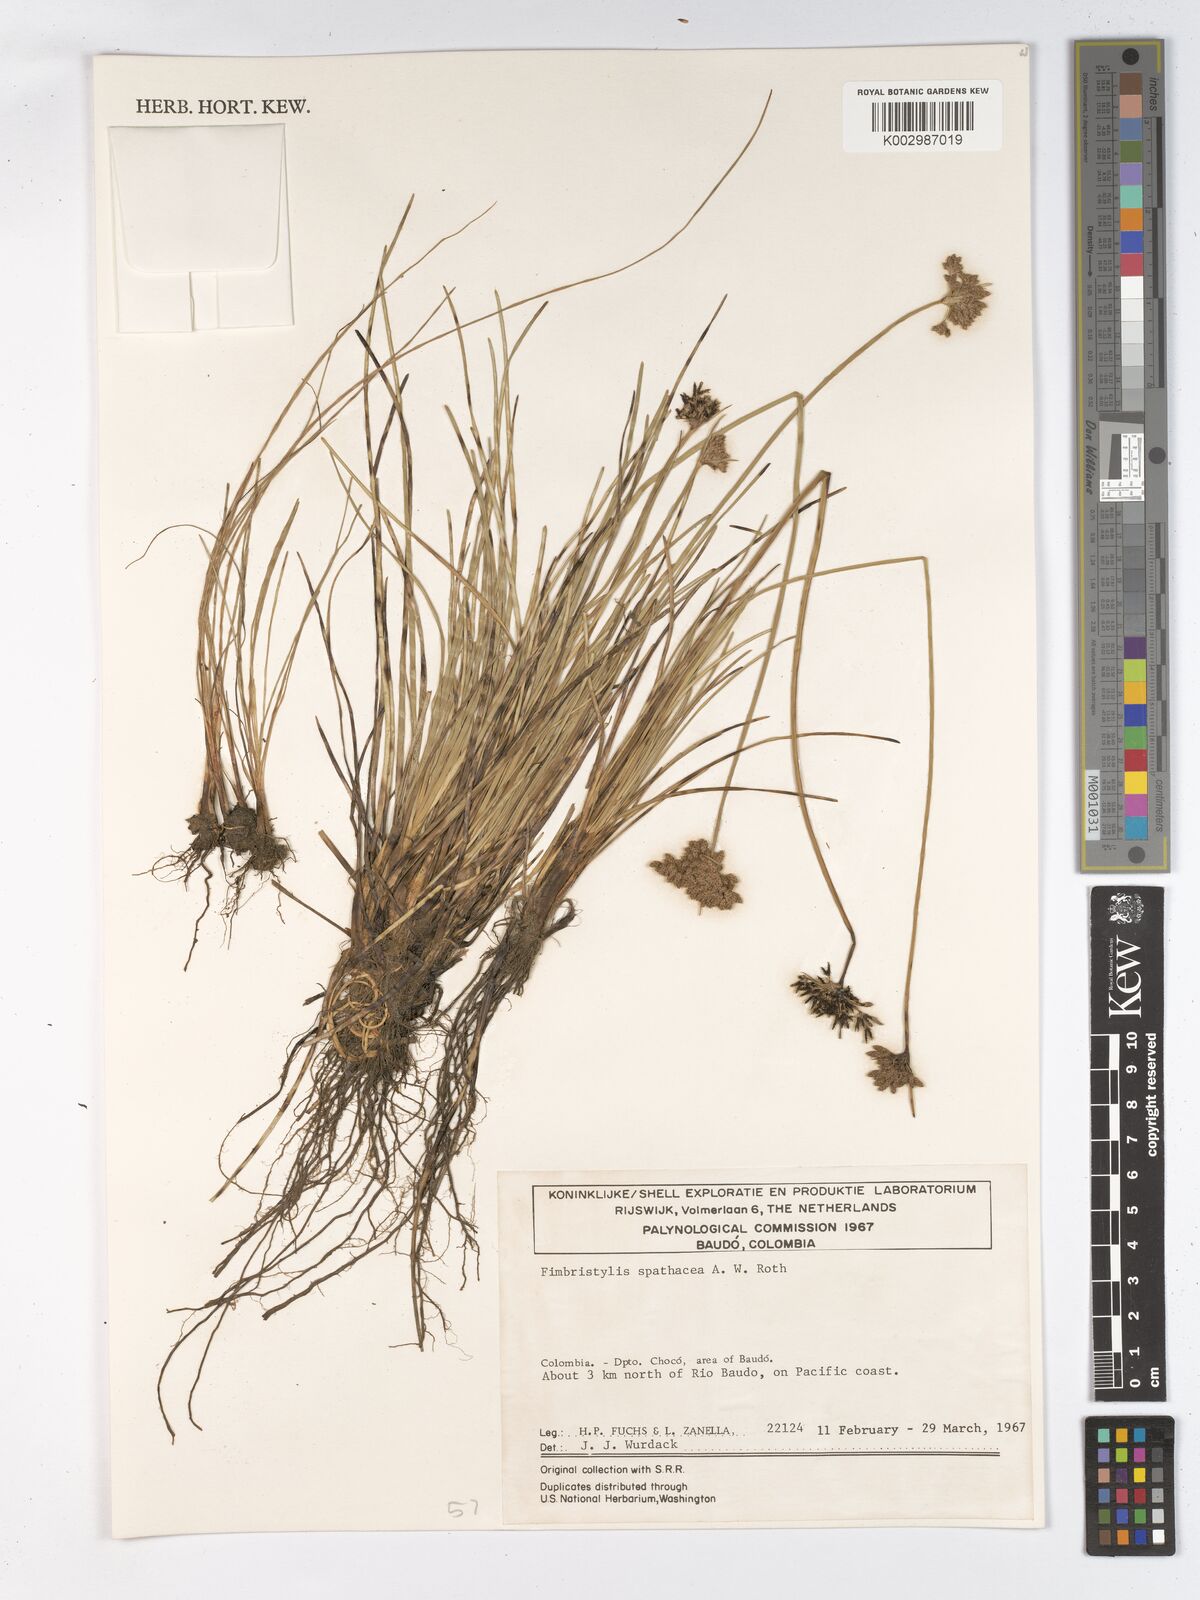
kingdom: Plantae
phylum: Tracheophyta
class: Liliopsida
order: Poales
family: Cyperaceae
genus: Fimbristylis
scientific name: Fimbristylis cymosa
